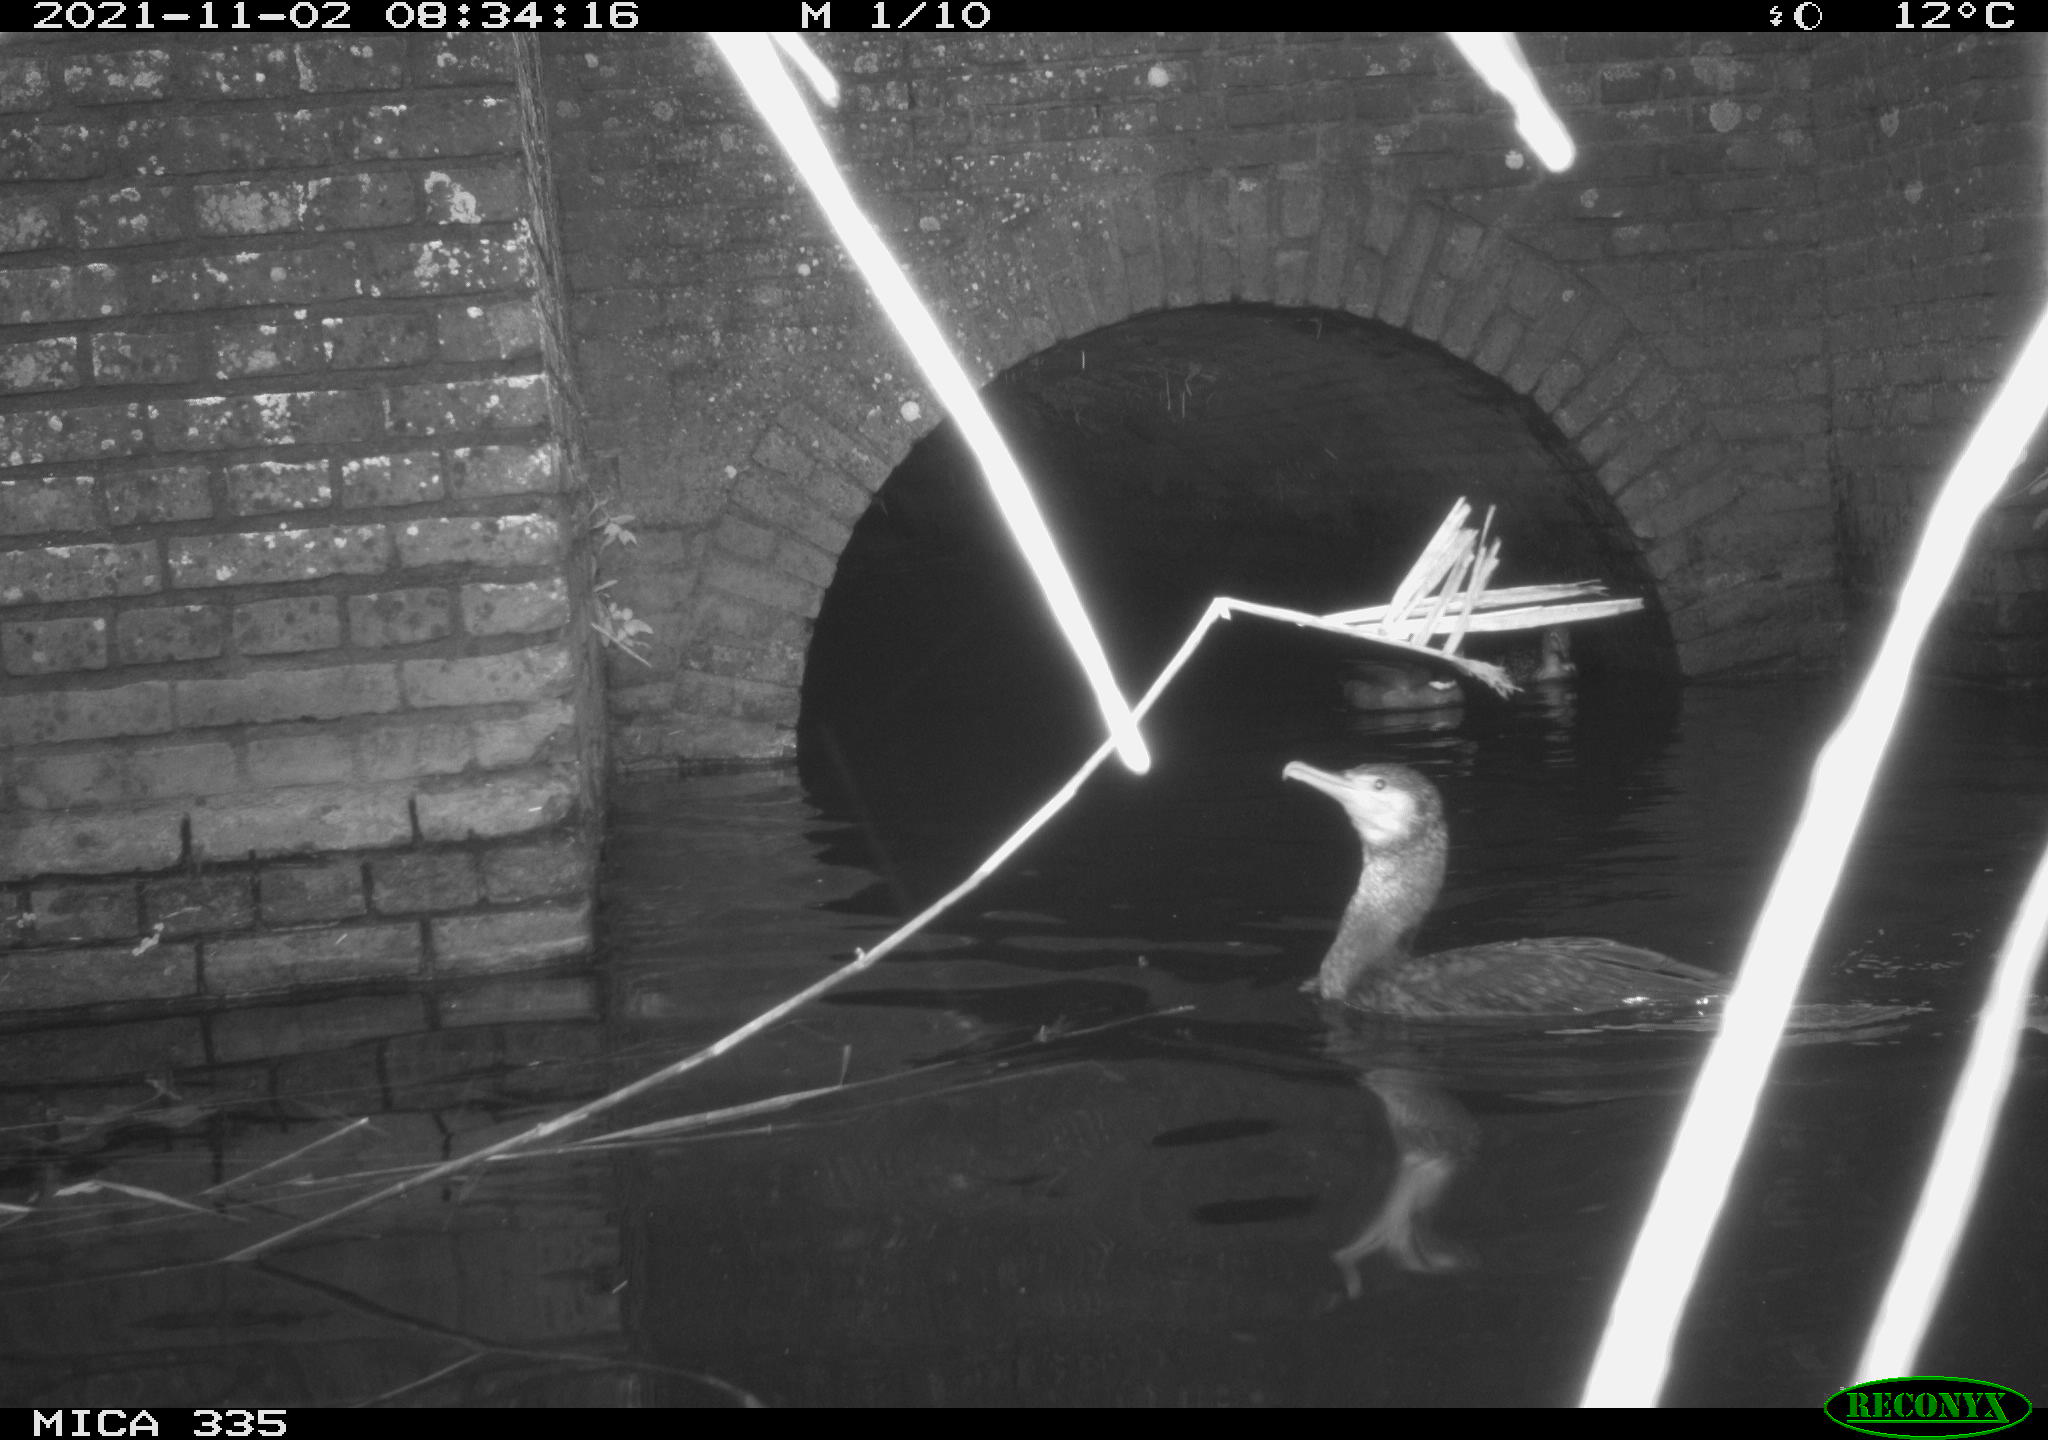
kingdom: Animalia
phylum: Chordata
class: Aves
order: Anseriformes
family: Anatidae
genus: Anas
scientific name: Anas platyrhynchos
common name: Mallard
